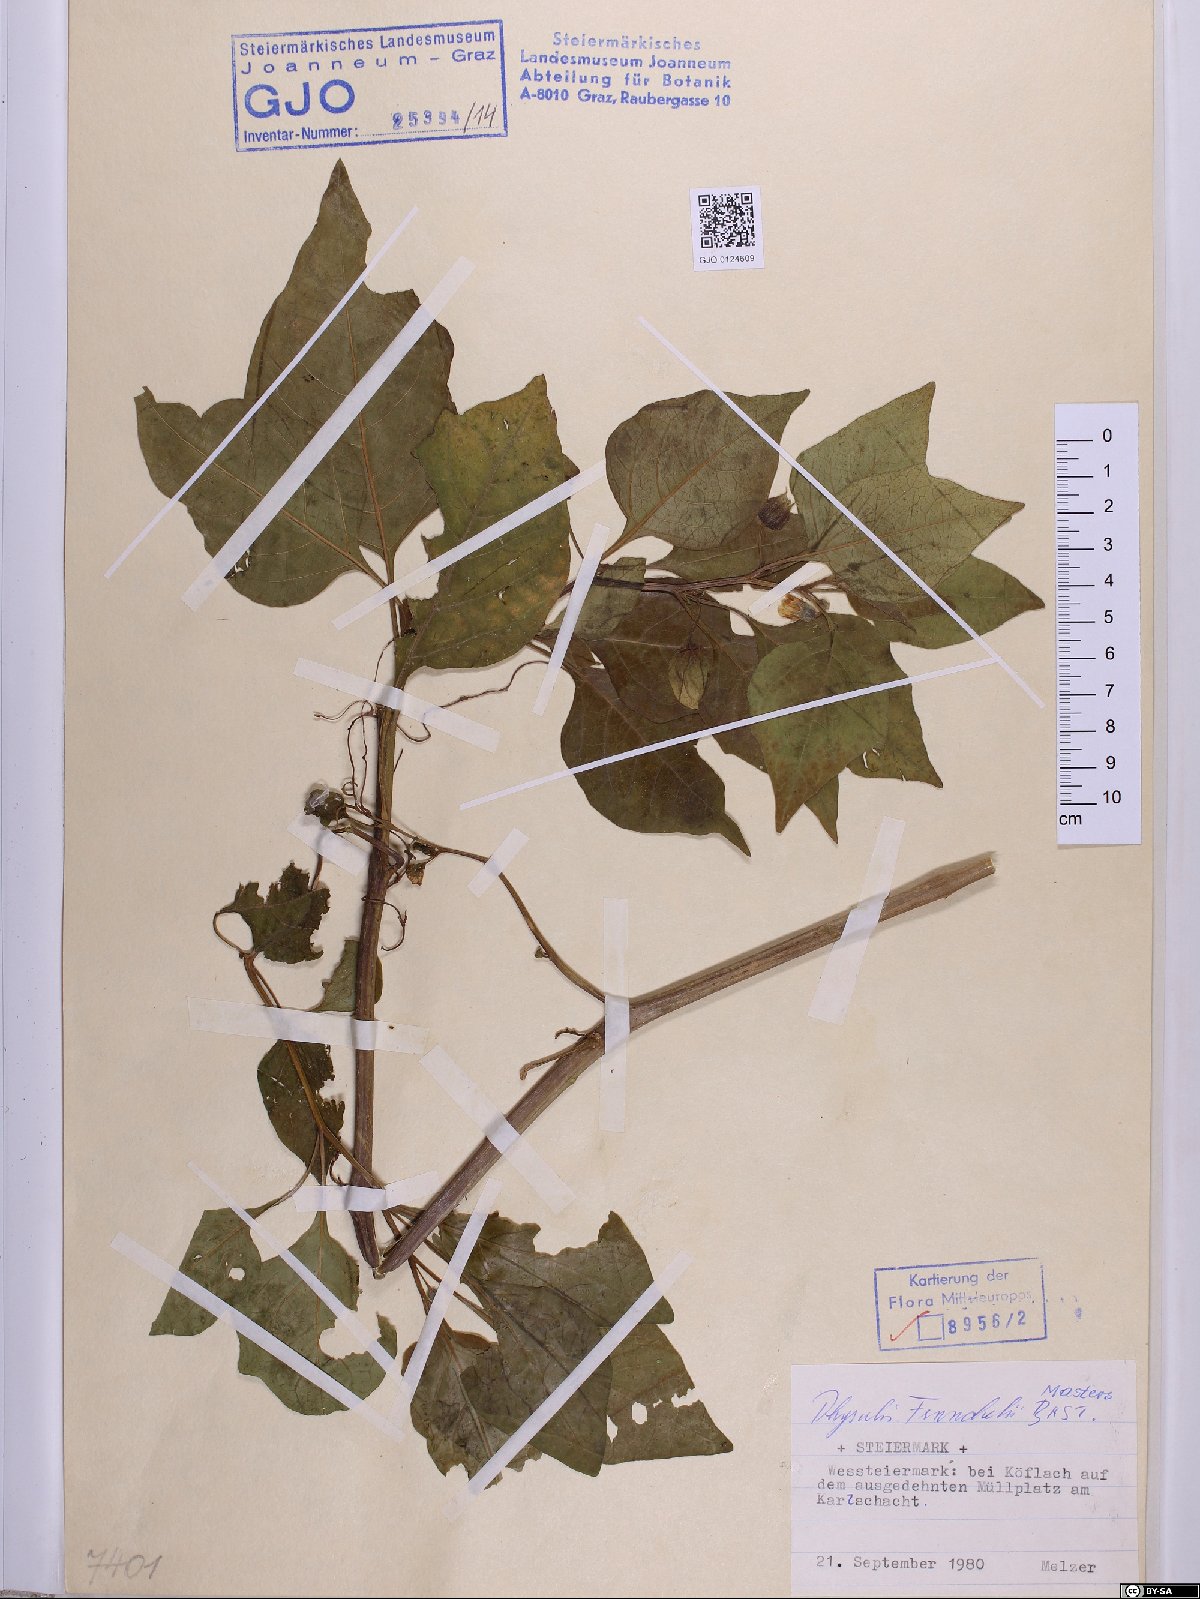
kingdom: Plantae
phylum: Tracheophyta
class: Magnoliopsida
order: Solanales
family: Solanaceae
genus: Alkekengi
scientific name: Alkekengi officinarum
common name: Japanese-lantern
